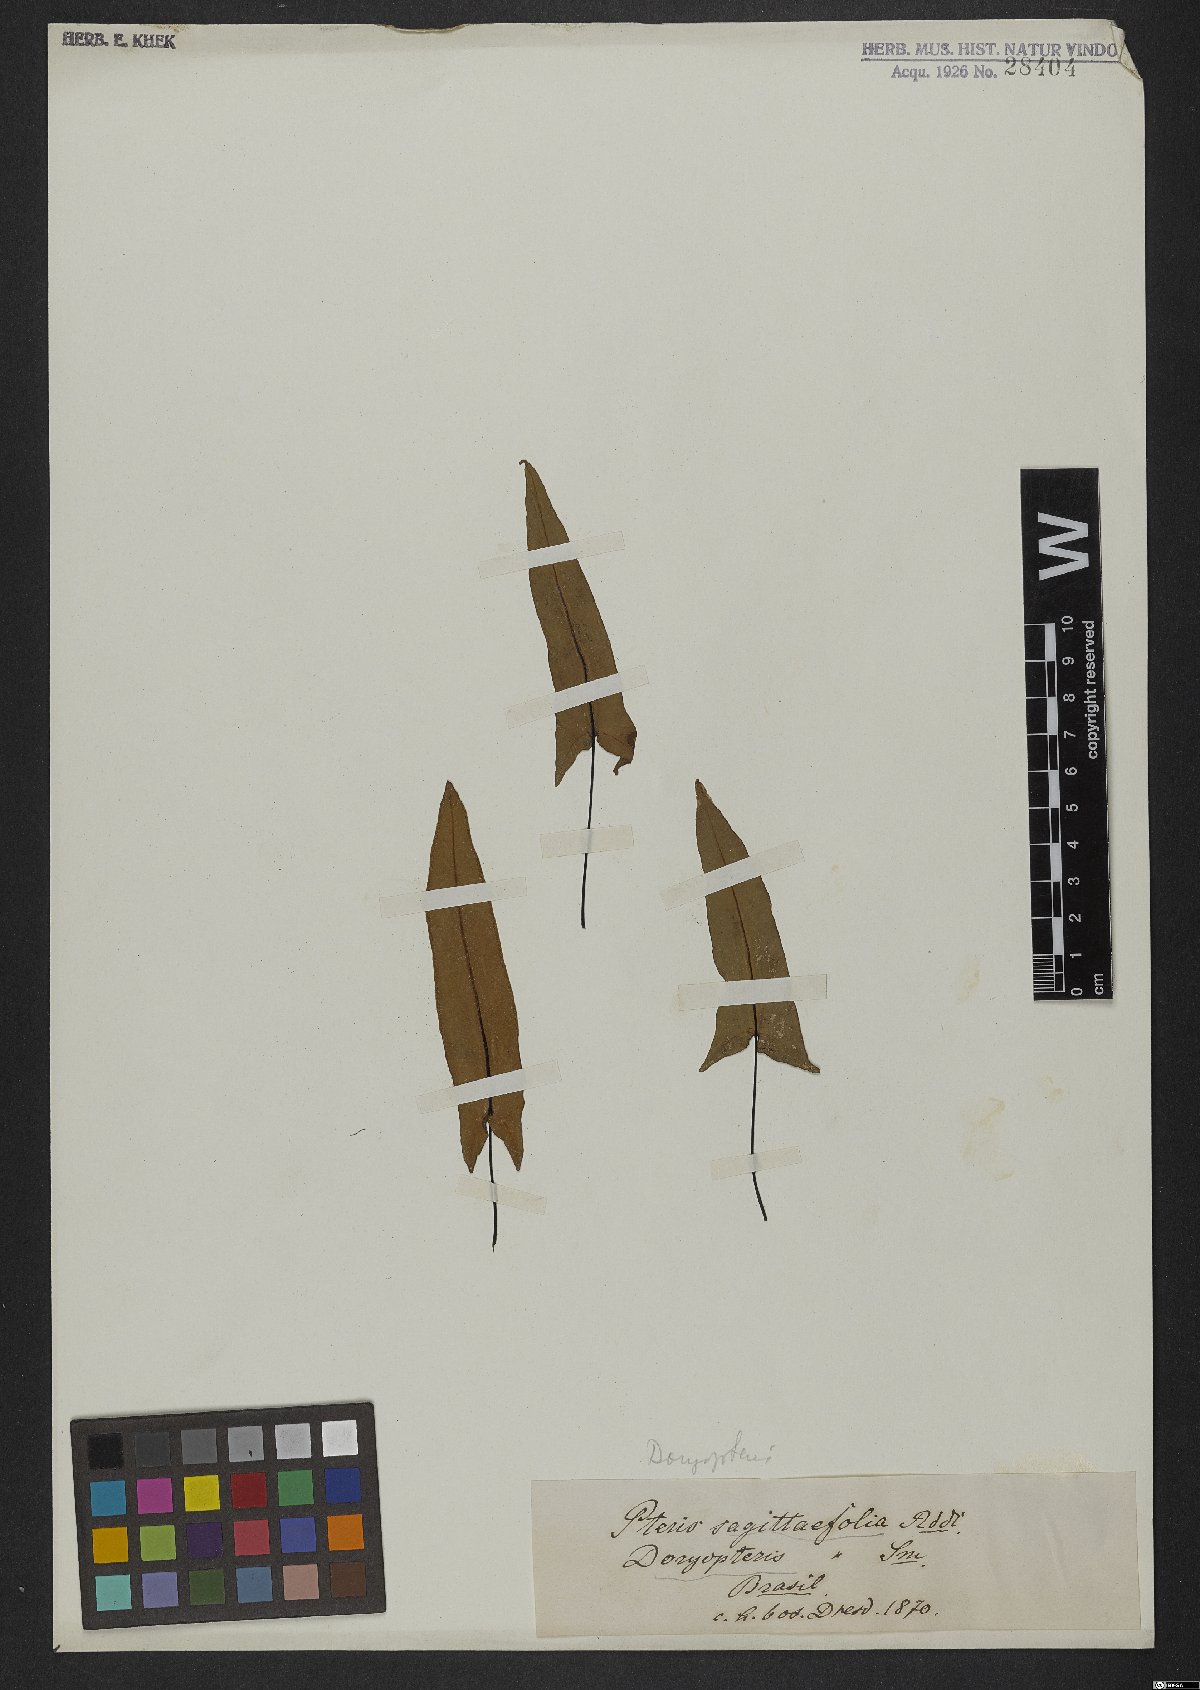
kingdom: Plantae
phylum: Tracheophyta
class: Polypodiopsida
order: Polypodiales
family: Pteridaceae
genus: Doryopteris
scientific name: Doryopteris
